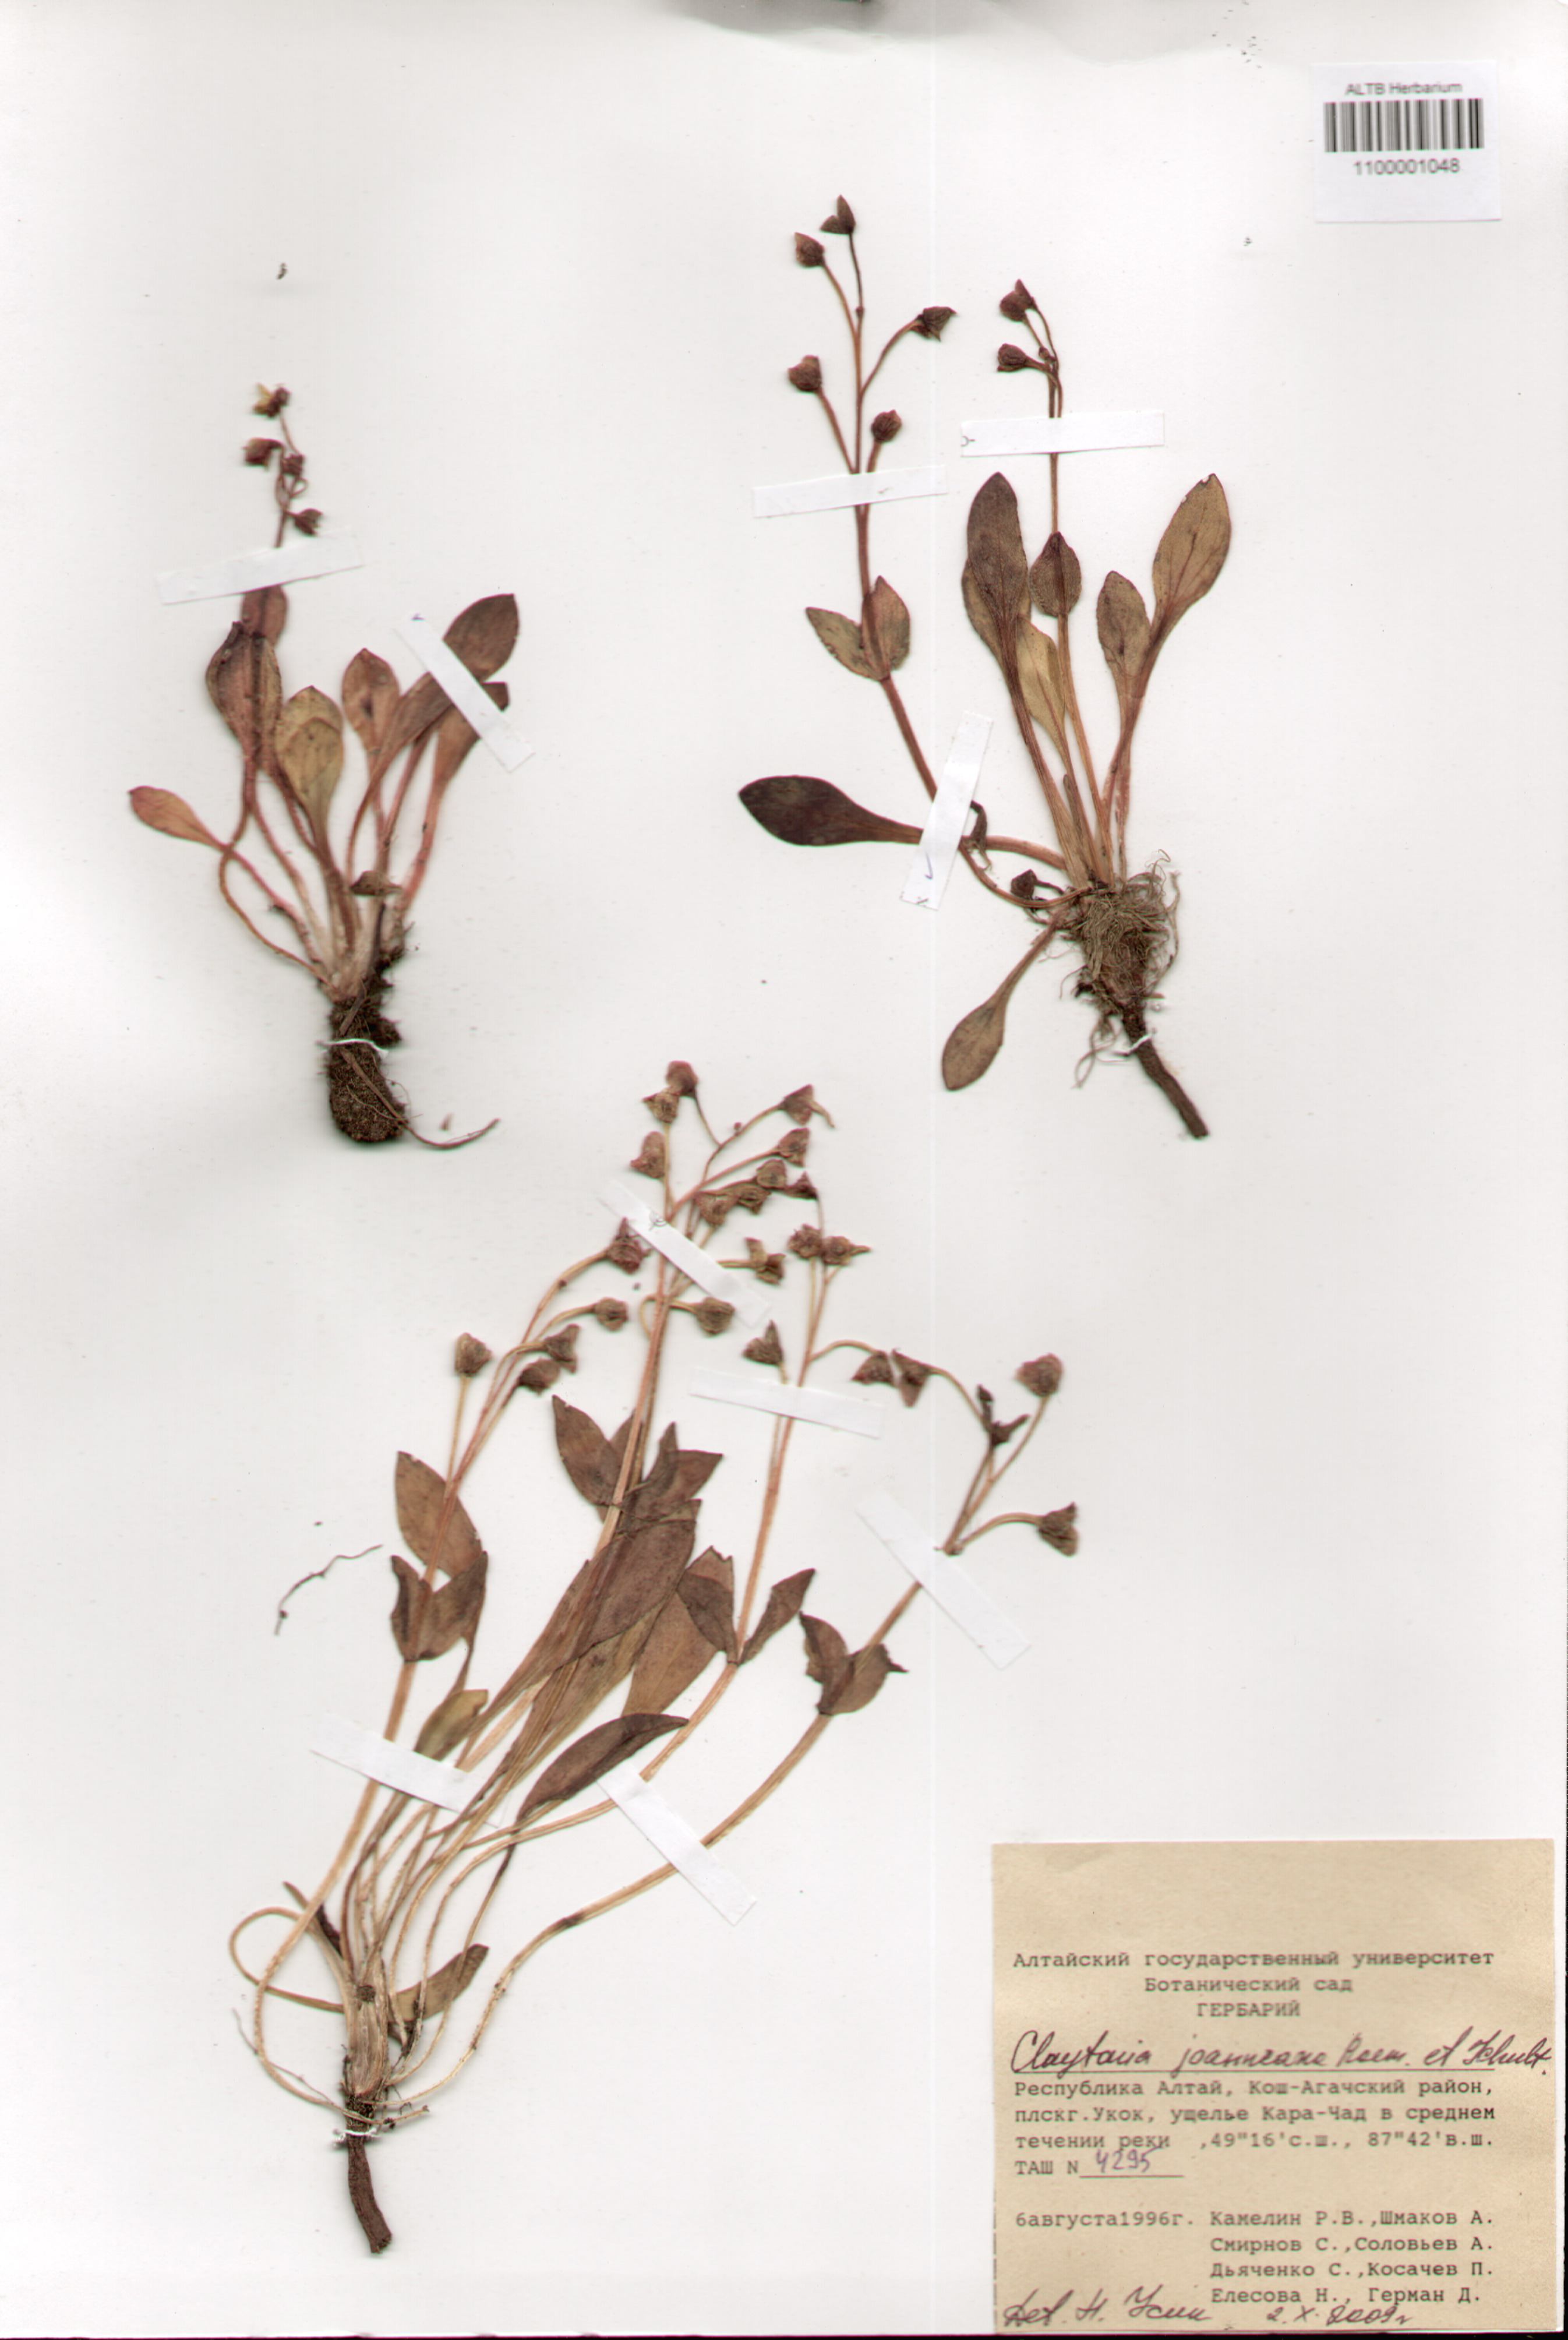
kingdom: Plantae
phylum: Tracheophyta
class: Magnoliopsida
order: Caryophyllales
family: Montiaceae
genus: Claytonia
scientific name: Claytonia joanneana
